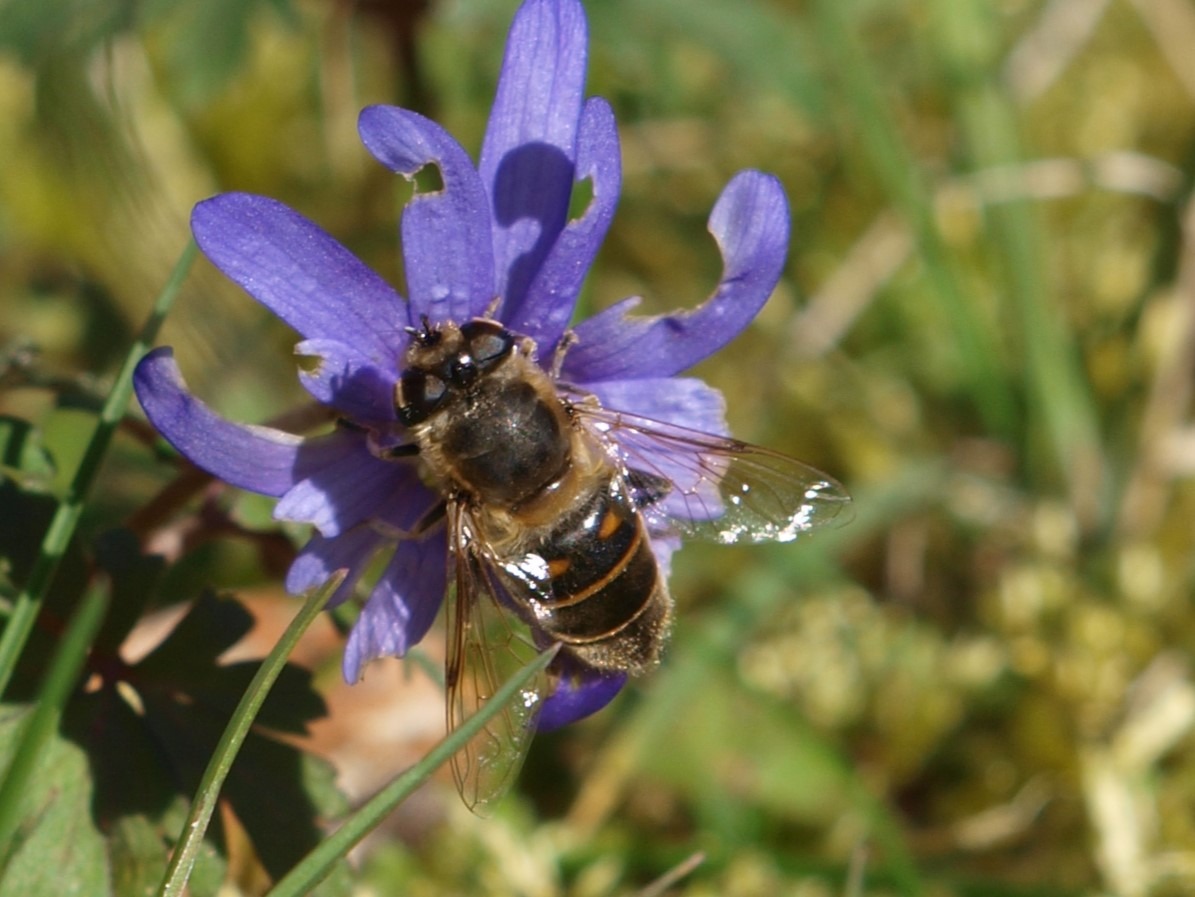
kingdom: Animalia
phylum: Arthropoda
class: Insecta
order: Diptera
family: Syrphidae
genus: Eristalis
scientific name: Eristalis tenax
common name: Droneflue
